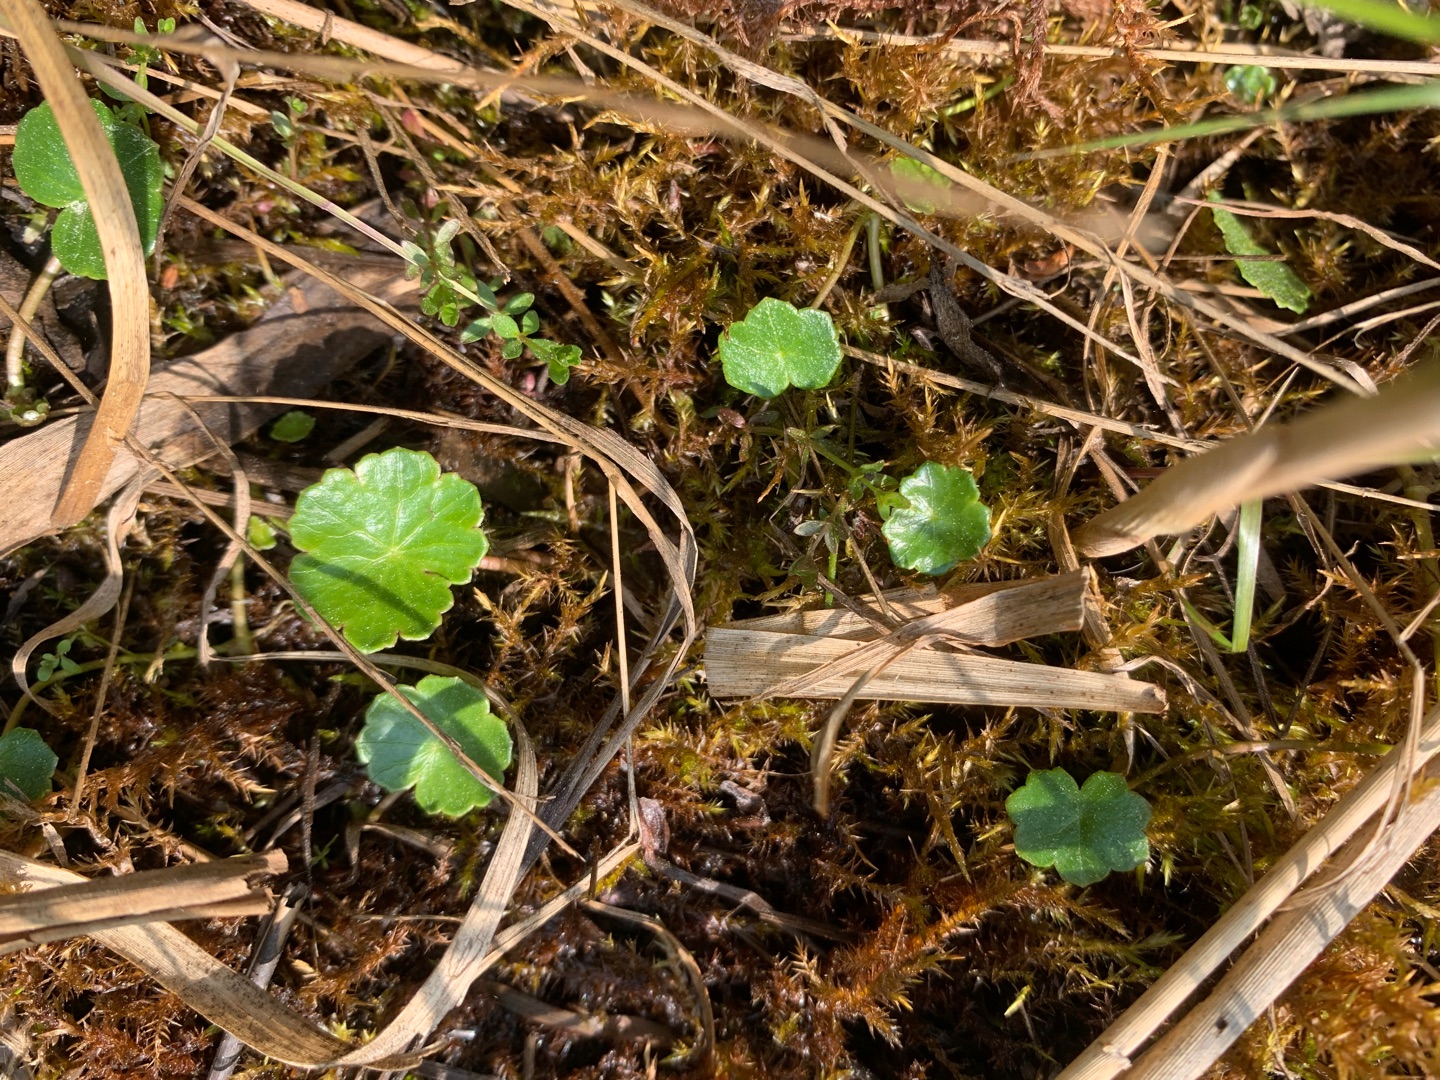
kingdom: Plantae
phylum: Tracheophyta
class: Magnoliopsida
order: Apiales
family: Araliaceae
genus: Hydrocotyle
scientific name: Hydrocotyle vulgaris
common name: Vandnavle
